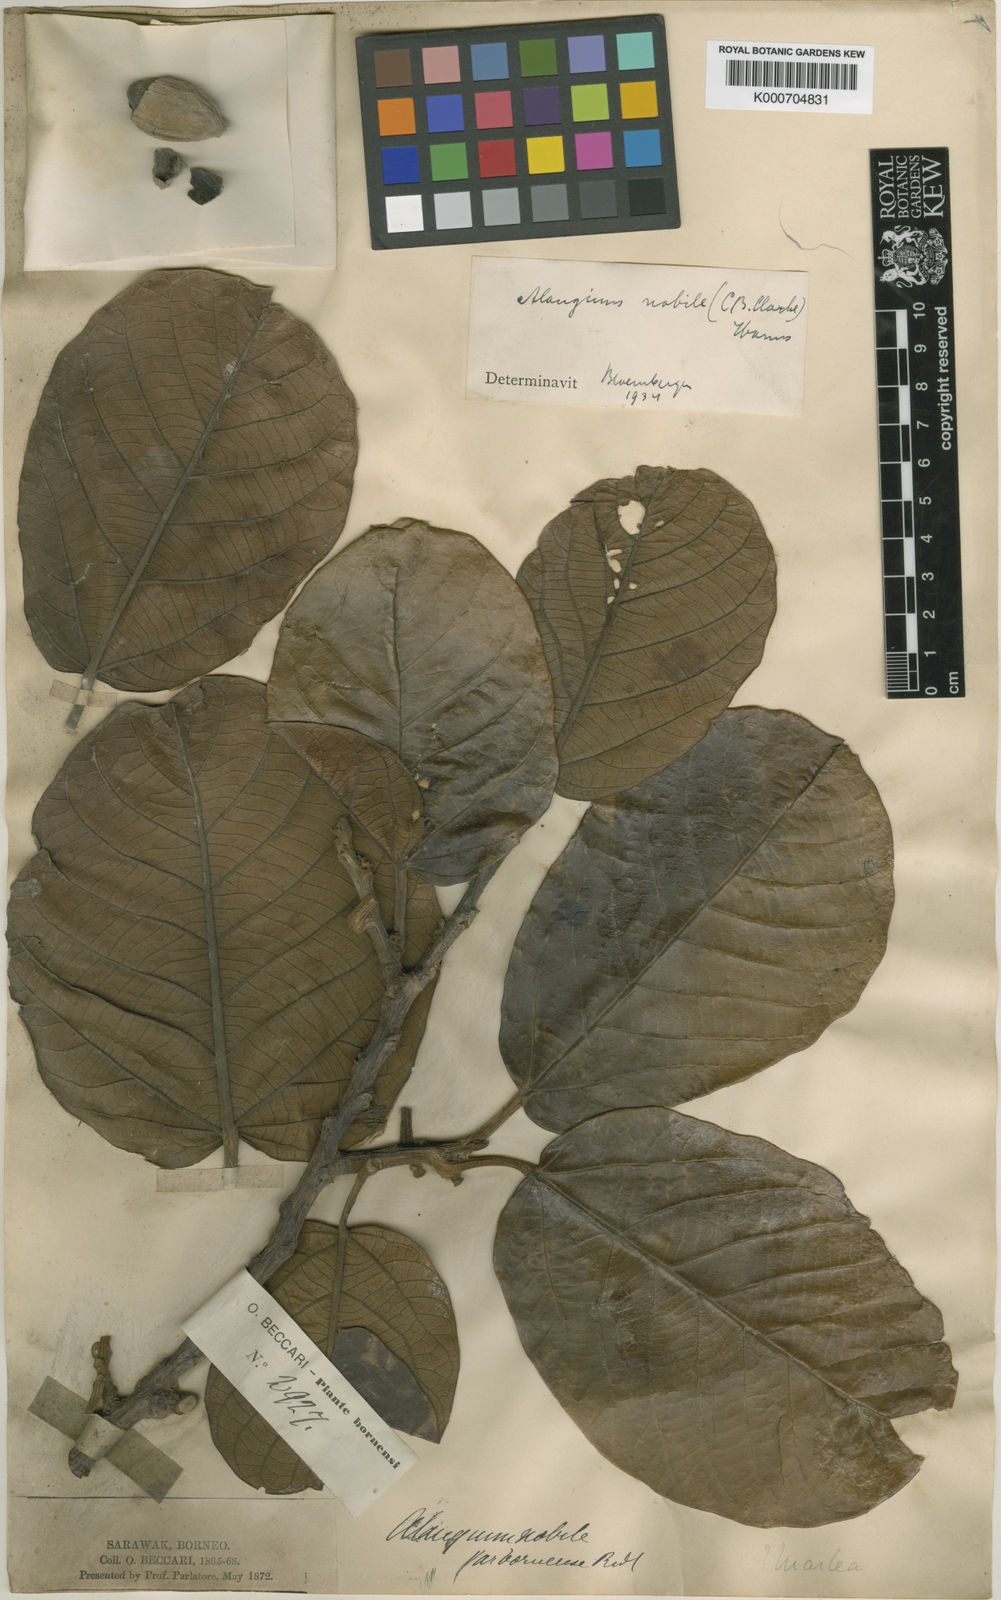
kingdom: Plantae
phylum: Tracheophyta
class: Magnoliopsida
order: Cornales
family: Cornaceae
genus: Alangium
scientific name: Alangium nobile
